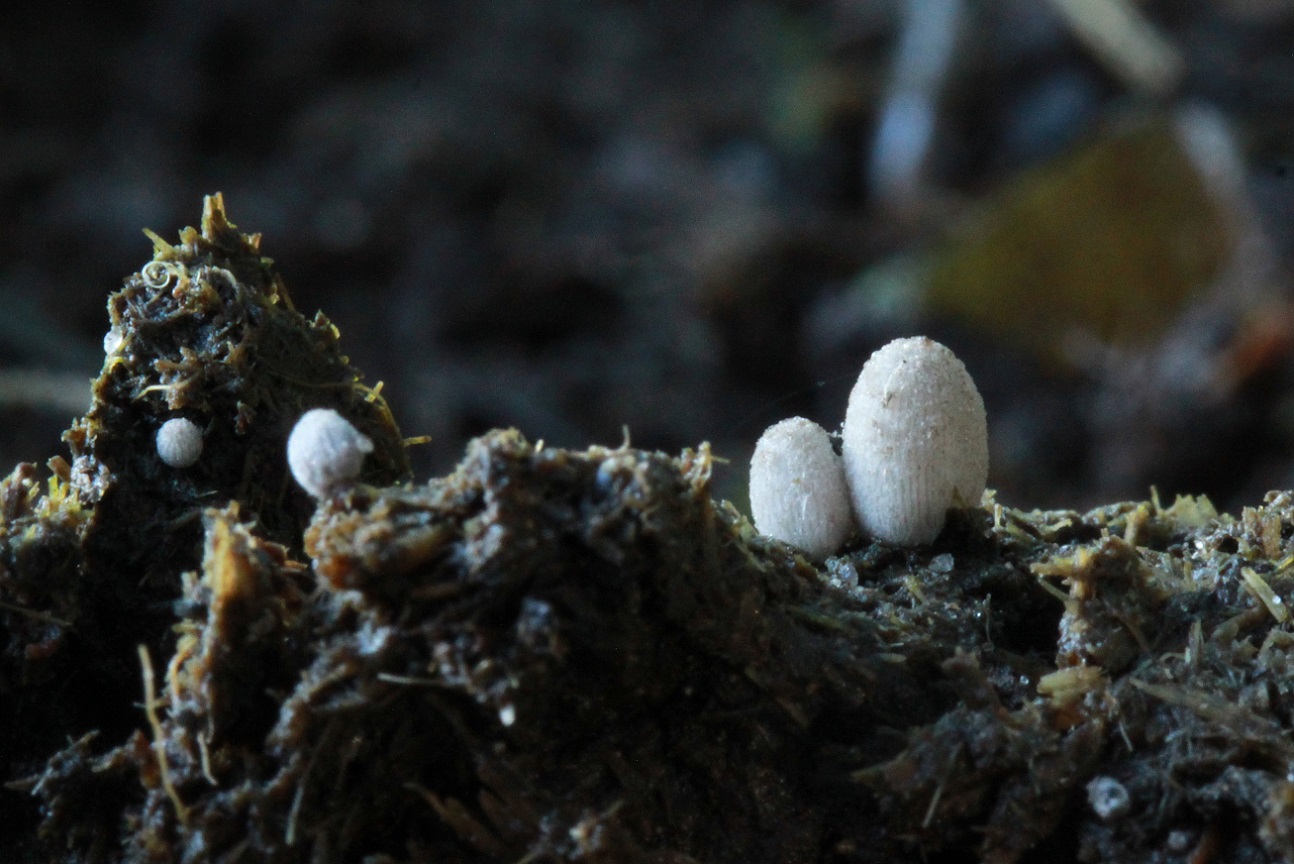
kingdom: Fungi
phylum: Basidiomycota
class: Agaricomycetes
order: Agaricales
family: Psathyrellaceae
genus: Coprinopsis
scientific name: Coprinopsis poliomalla
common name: gråfnugget blækhat
